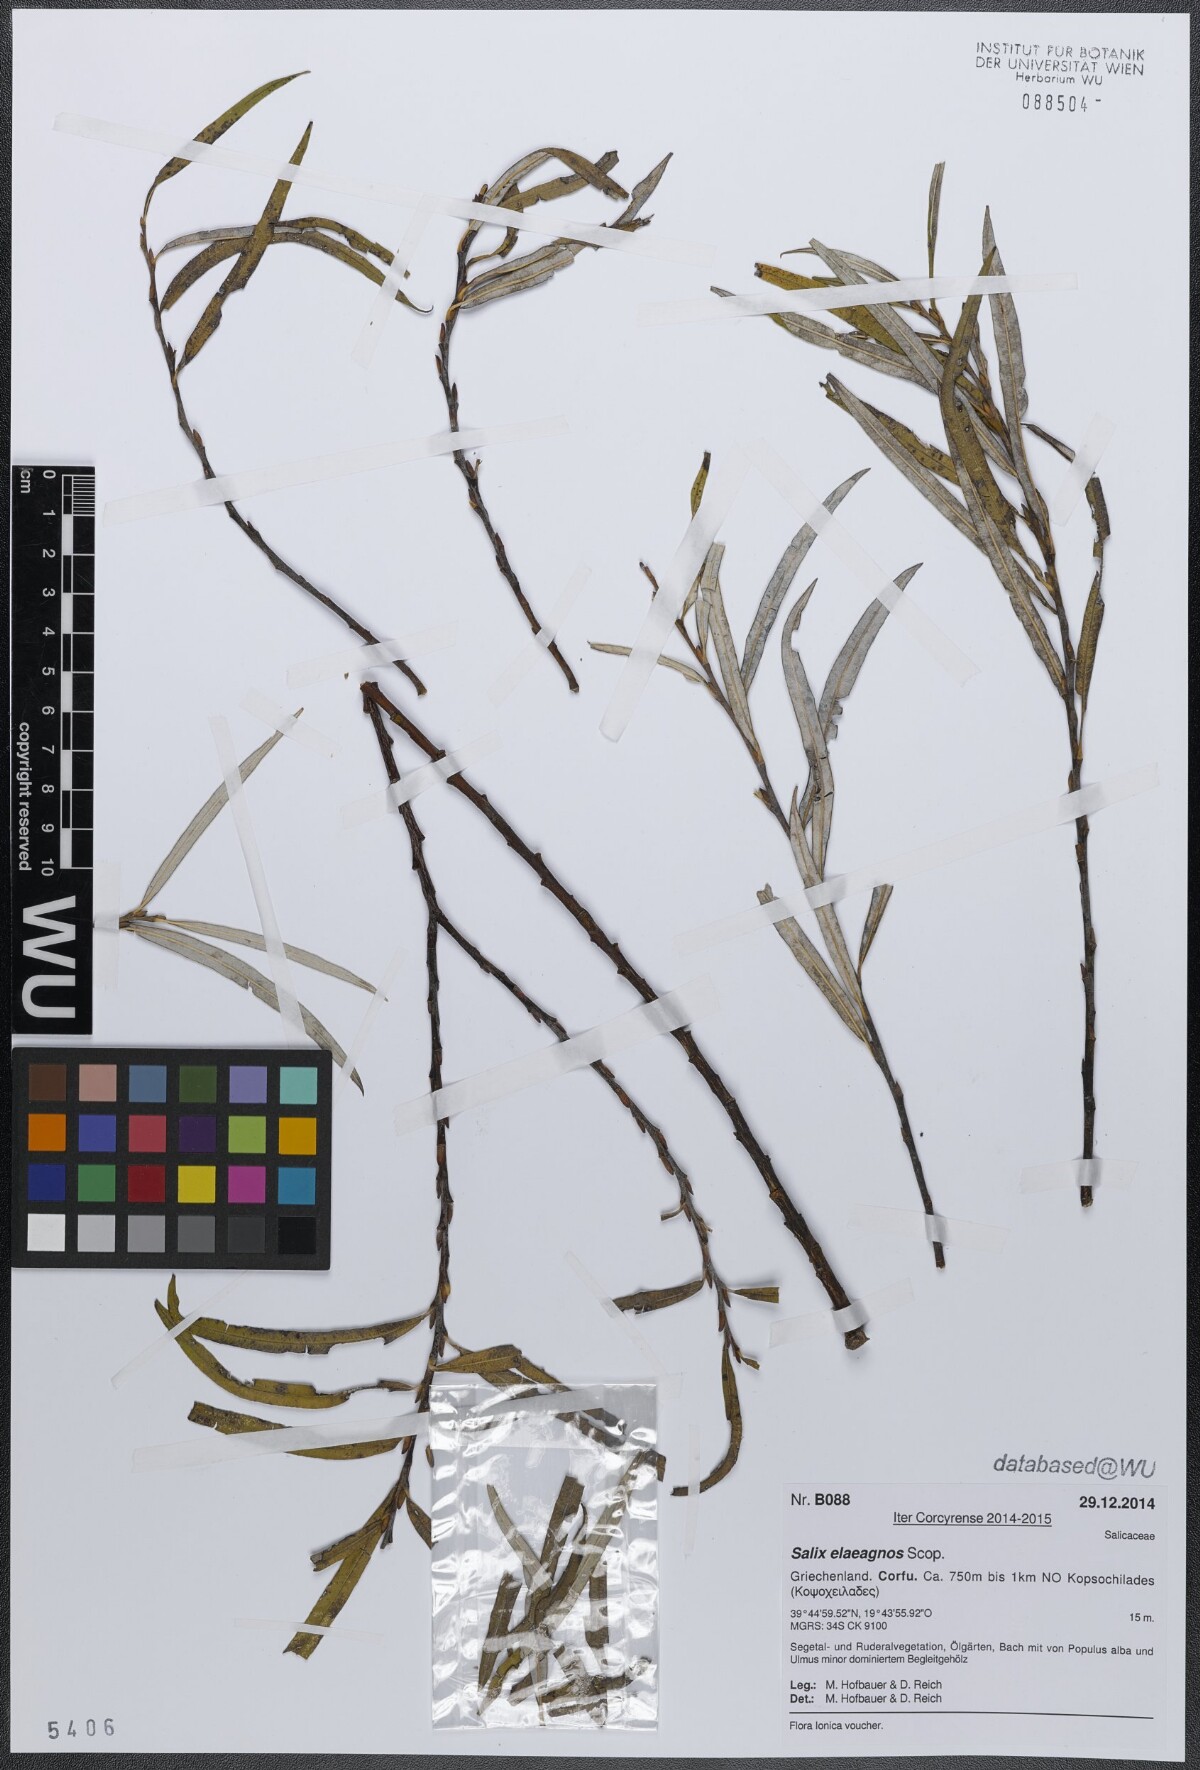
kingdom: Plantae
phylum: Tracheophyta
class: Magnoliopsida
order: Malpighiales
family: Salicaceae
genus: Salix
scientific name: Salix eleagnos
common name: Elaeagnus willow
